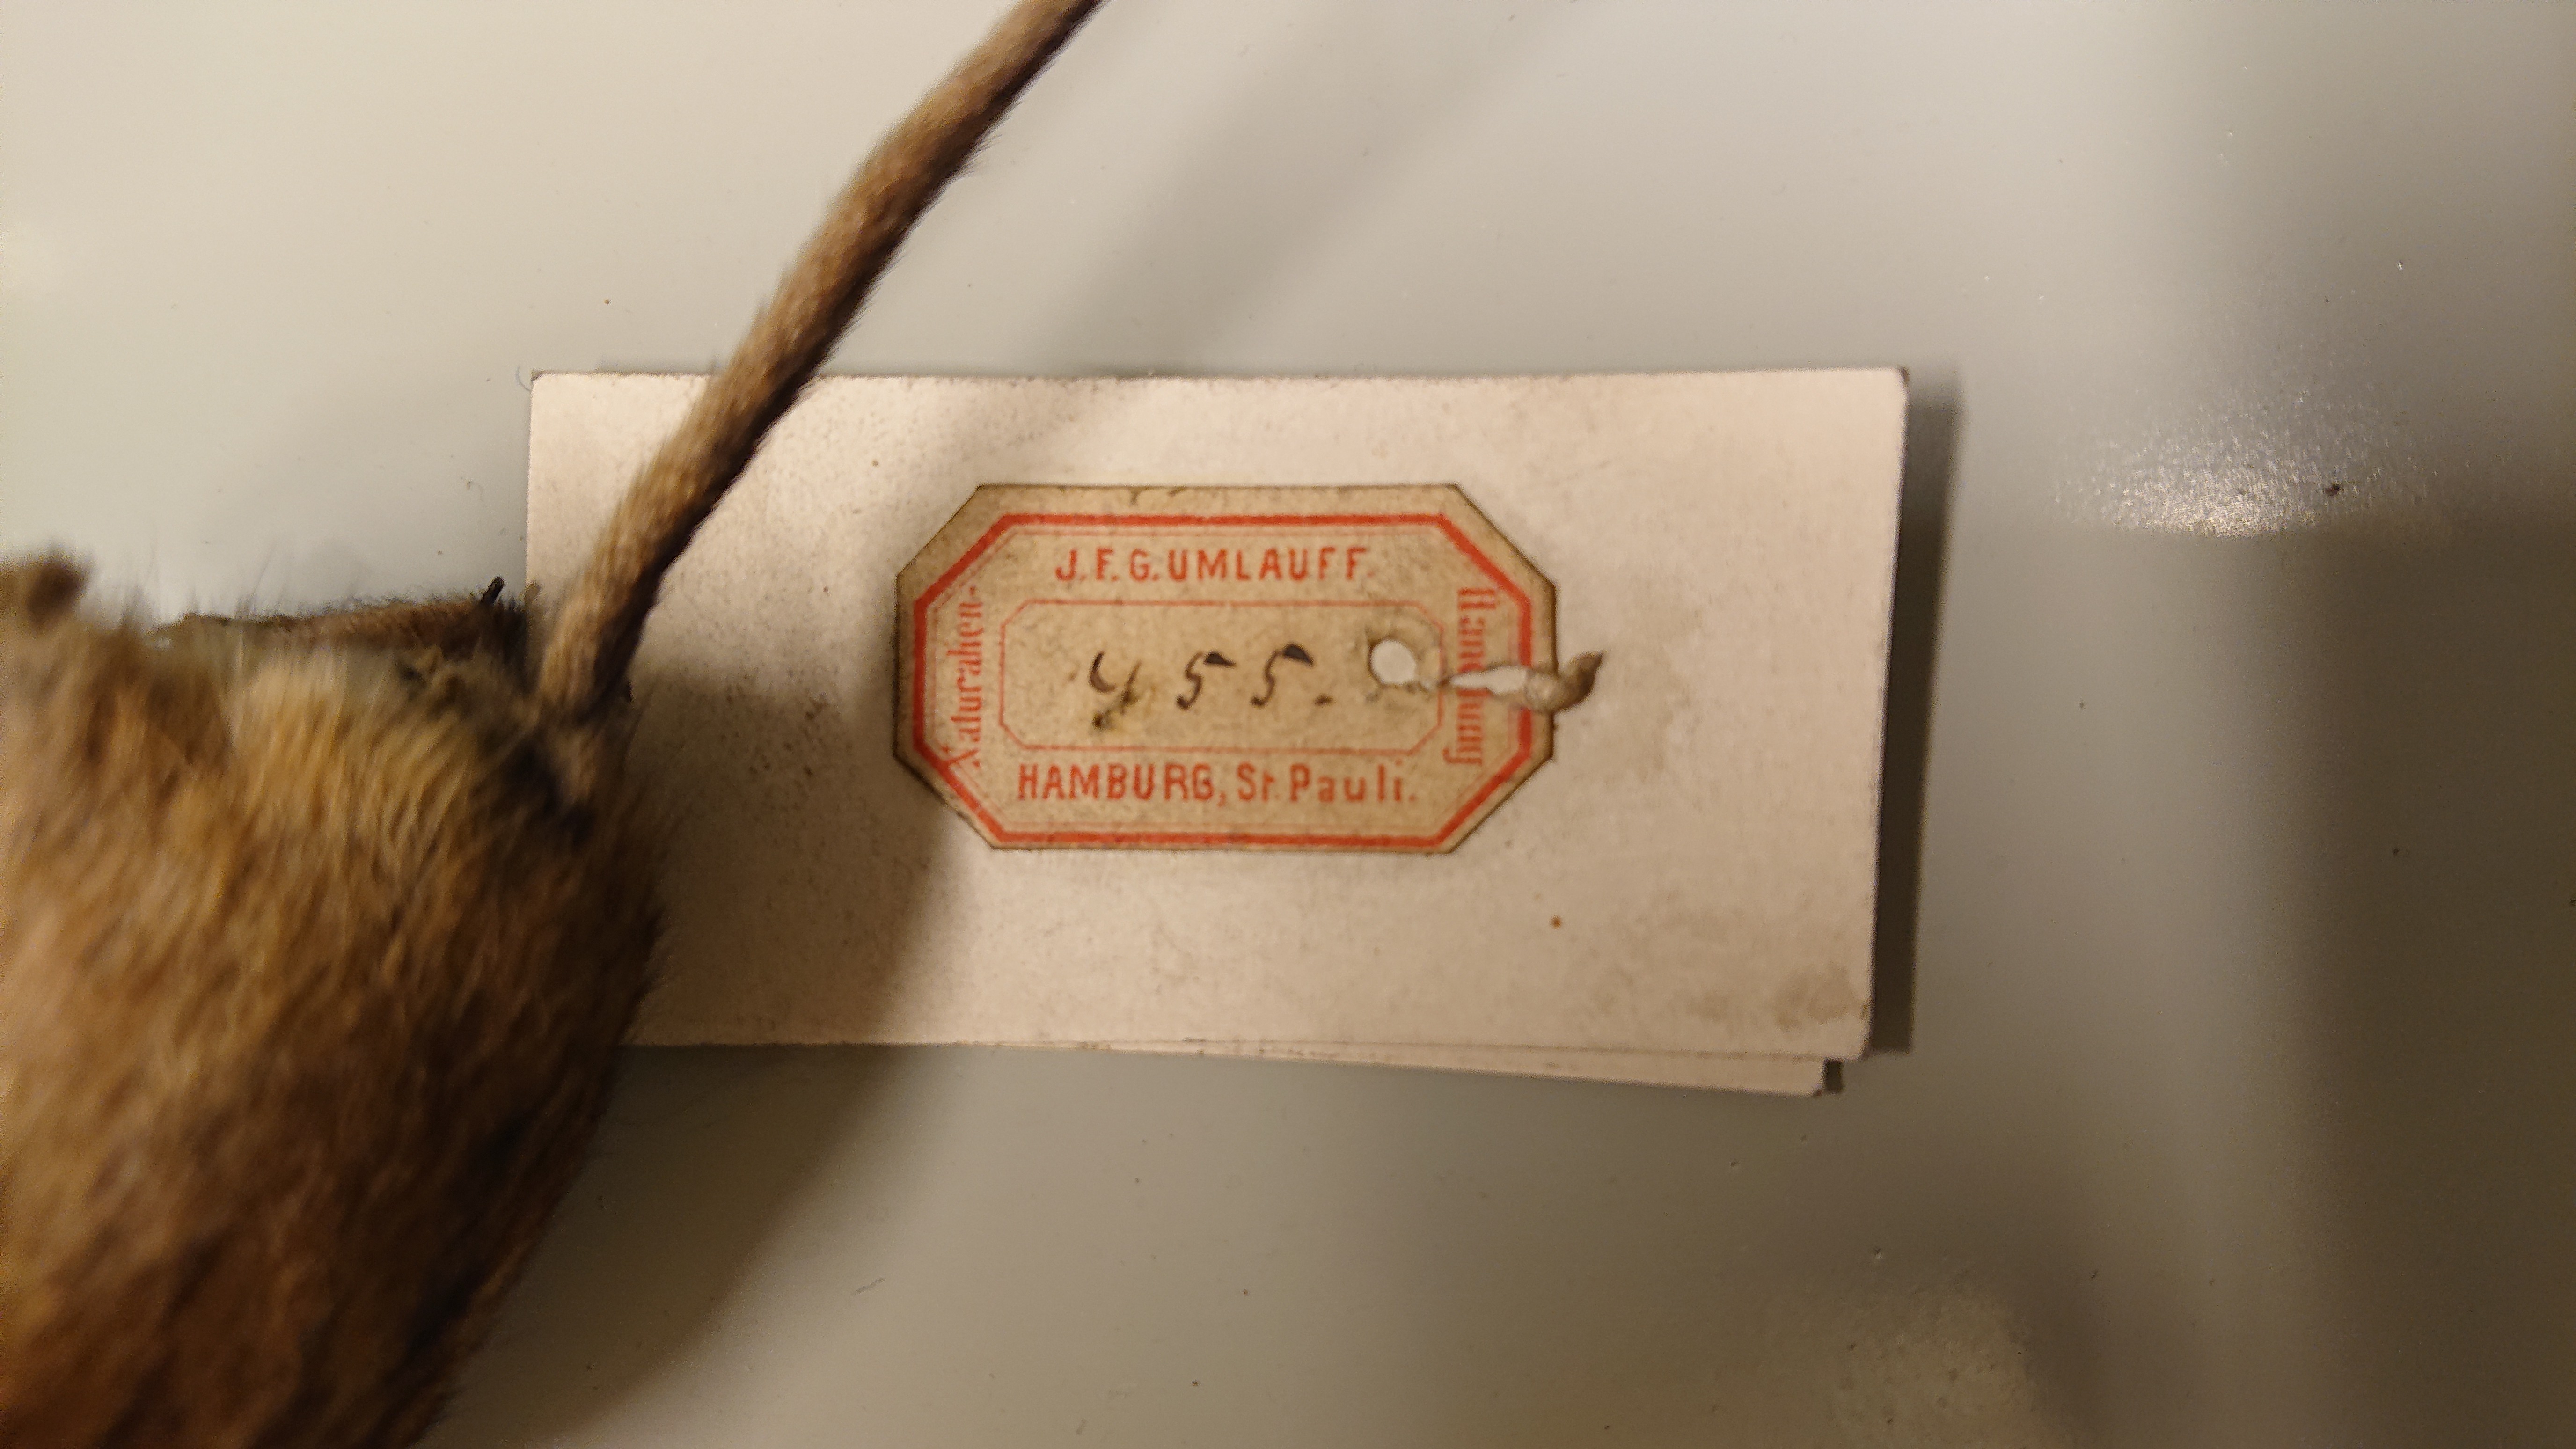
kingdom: Animalia
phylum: Chordata
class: Mammalia
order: Rodentia
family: Muridae
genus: Apodemus
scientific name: Apodemus agrarius
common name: Striped field mouse
